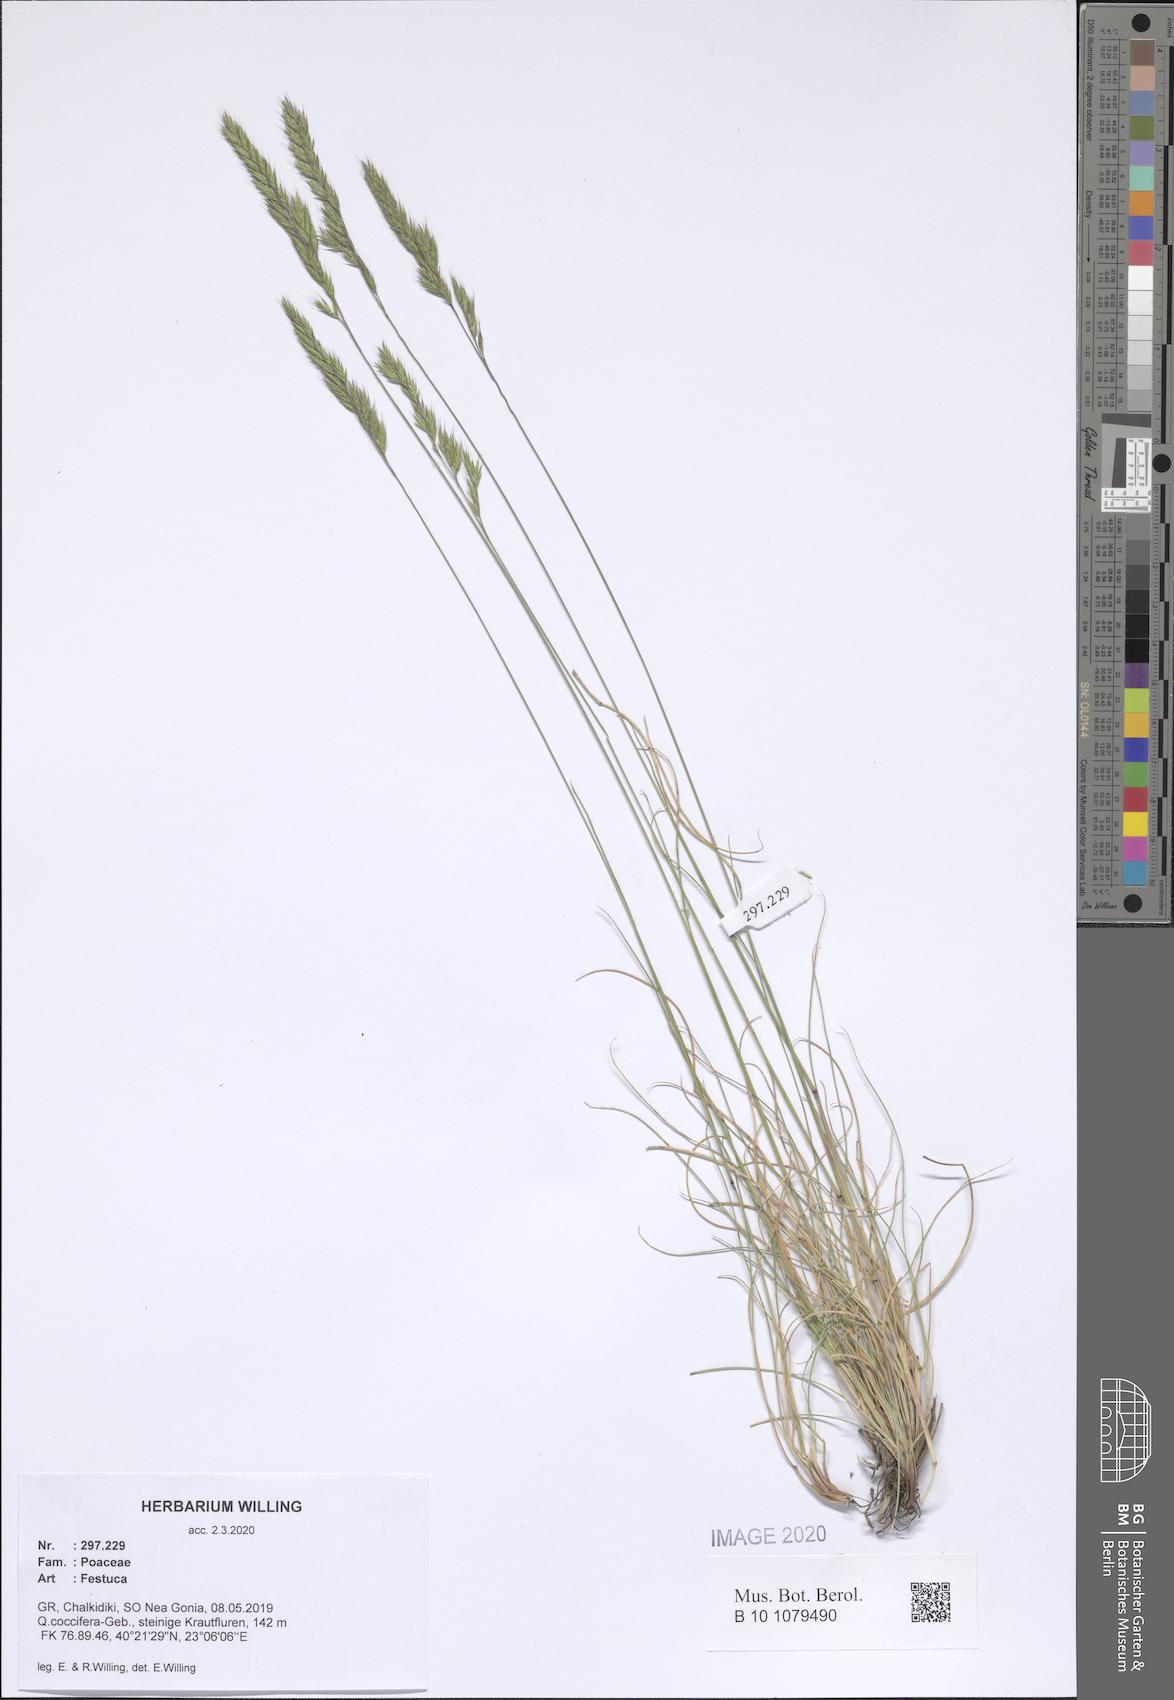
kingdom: Plantae
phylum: Tracheophyta
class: Liliopsida
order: Poales
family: Poaceae
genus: Festuca
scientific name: Festuca
